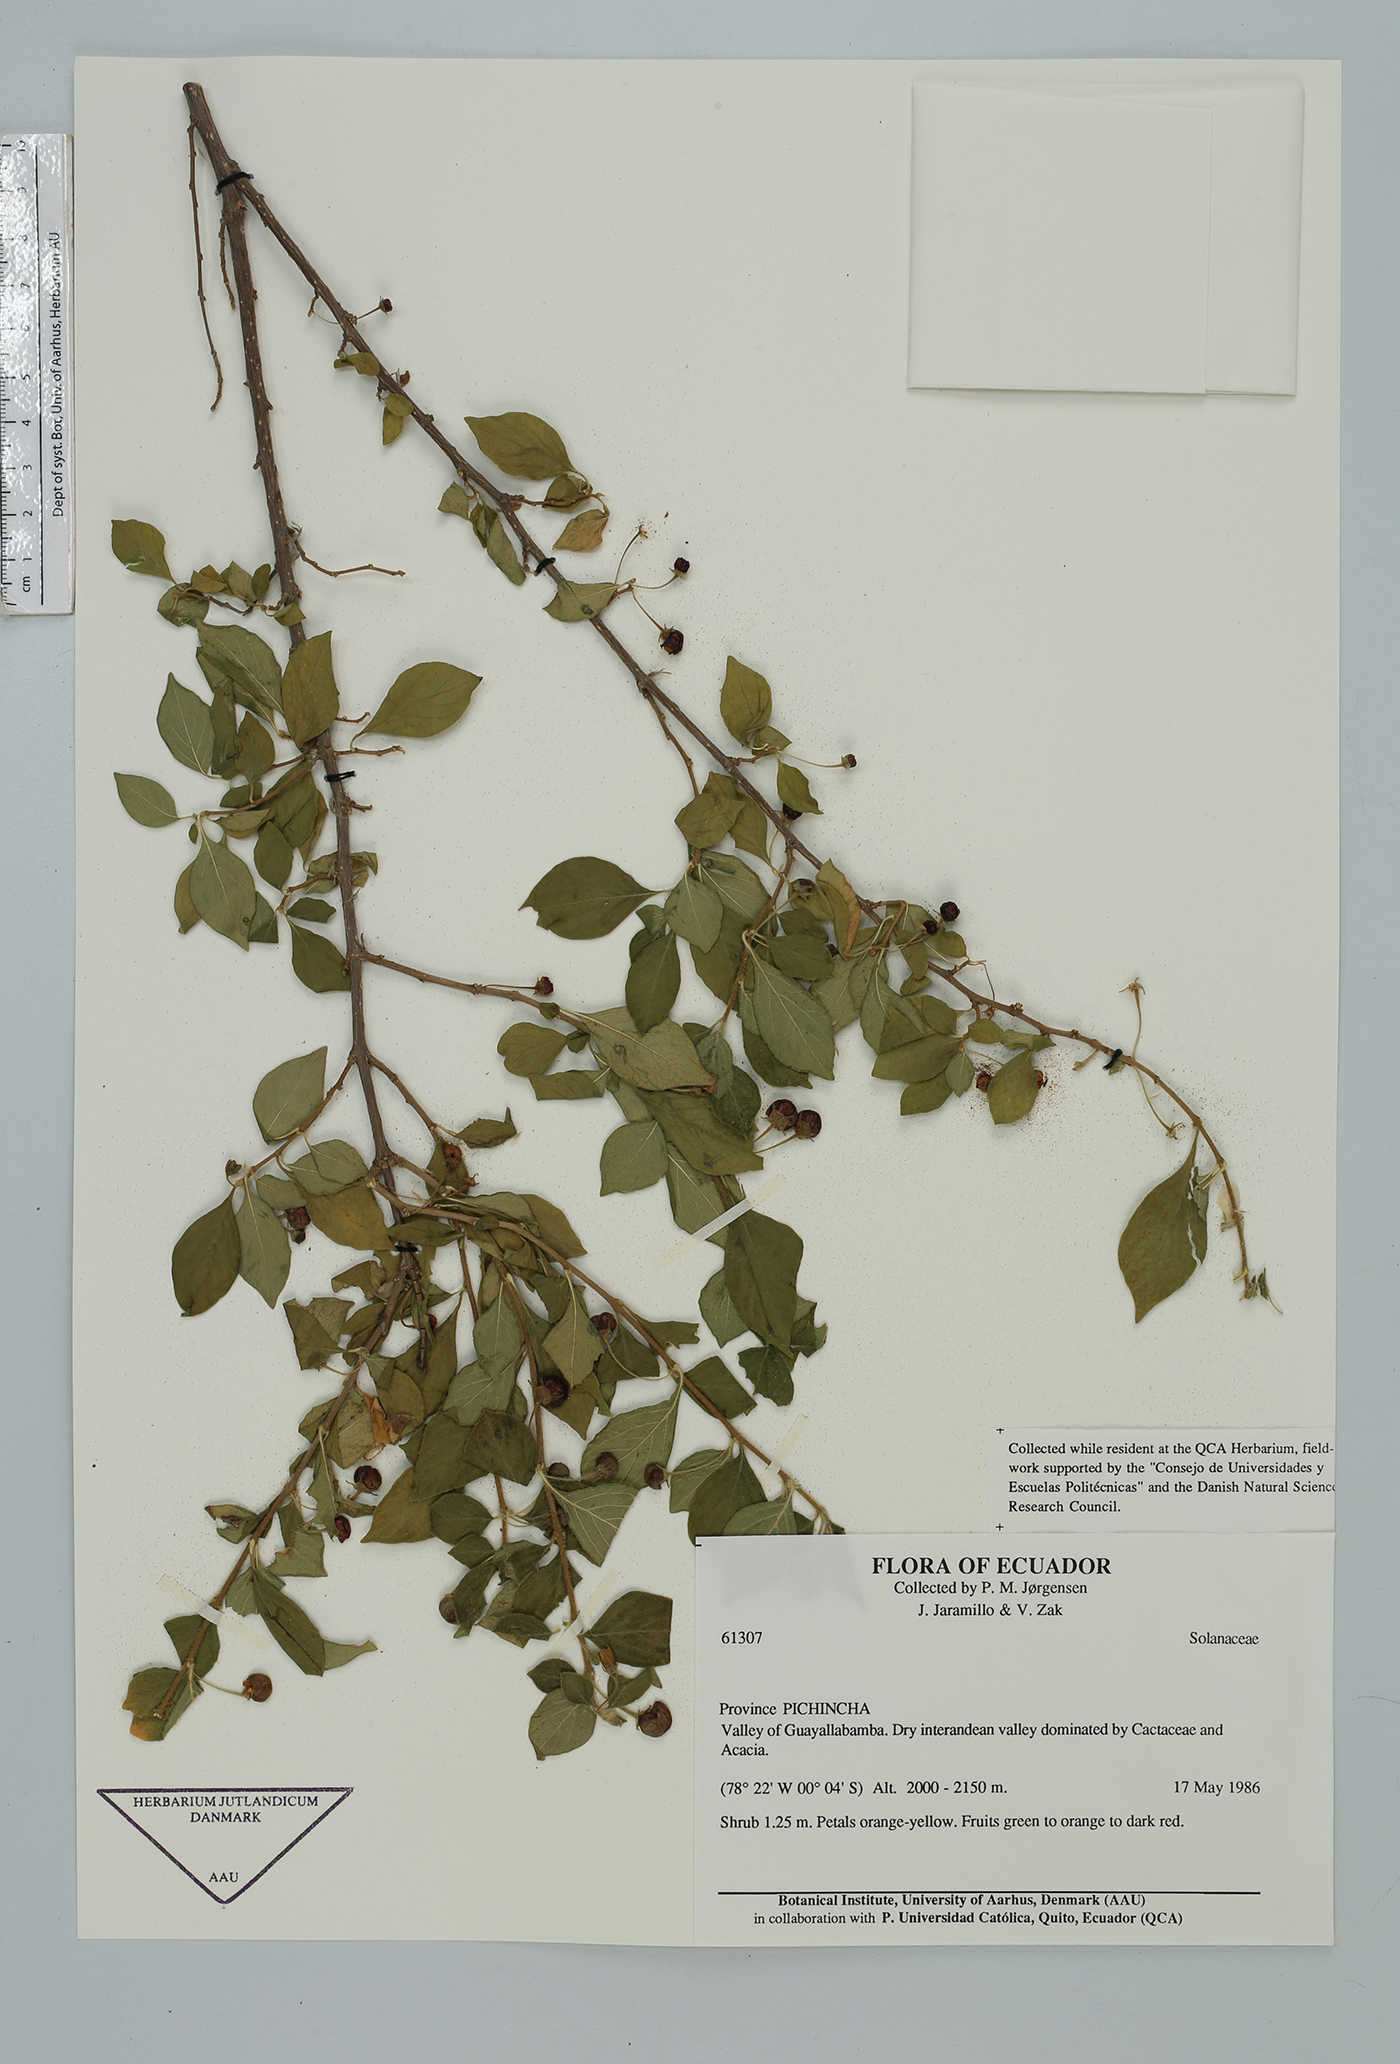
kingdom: Plantae
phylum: Tracheophyta
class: Magnoliopsida
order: Solanales
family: Solanaceae
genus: Lycianthes
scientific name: Lycianthes lycioides
